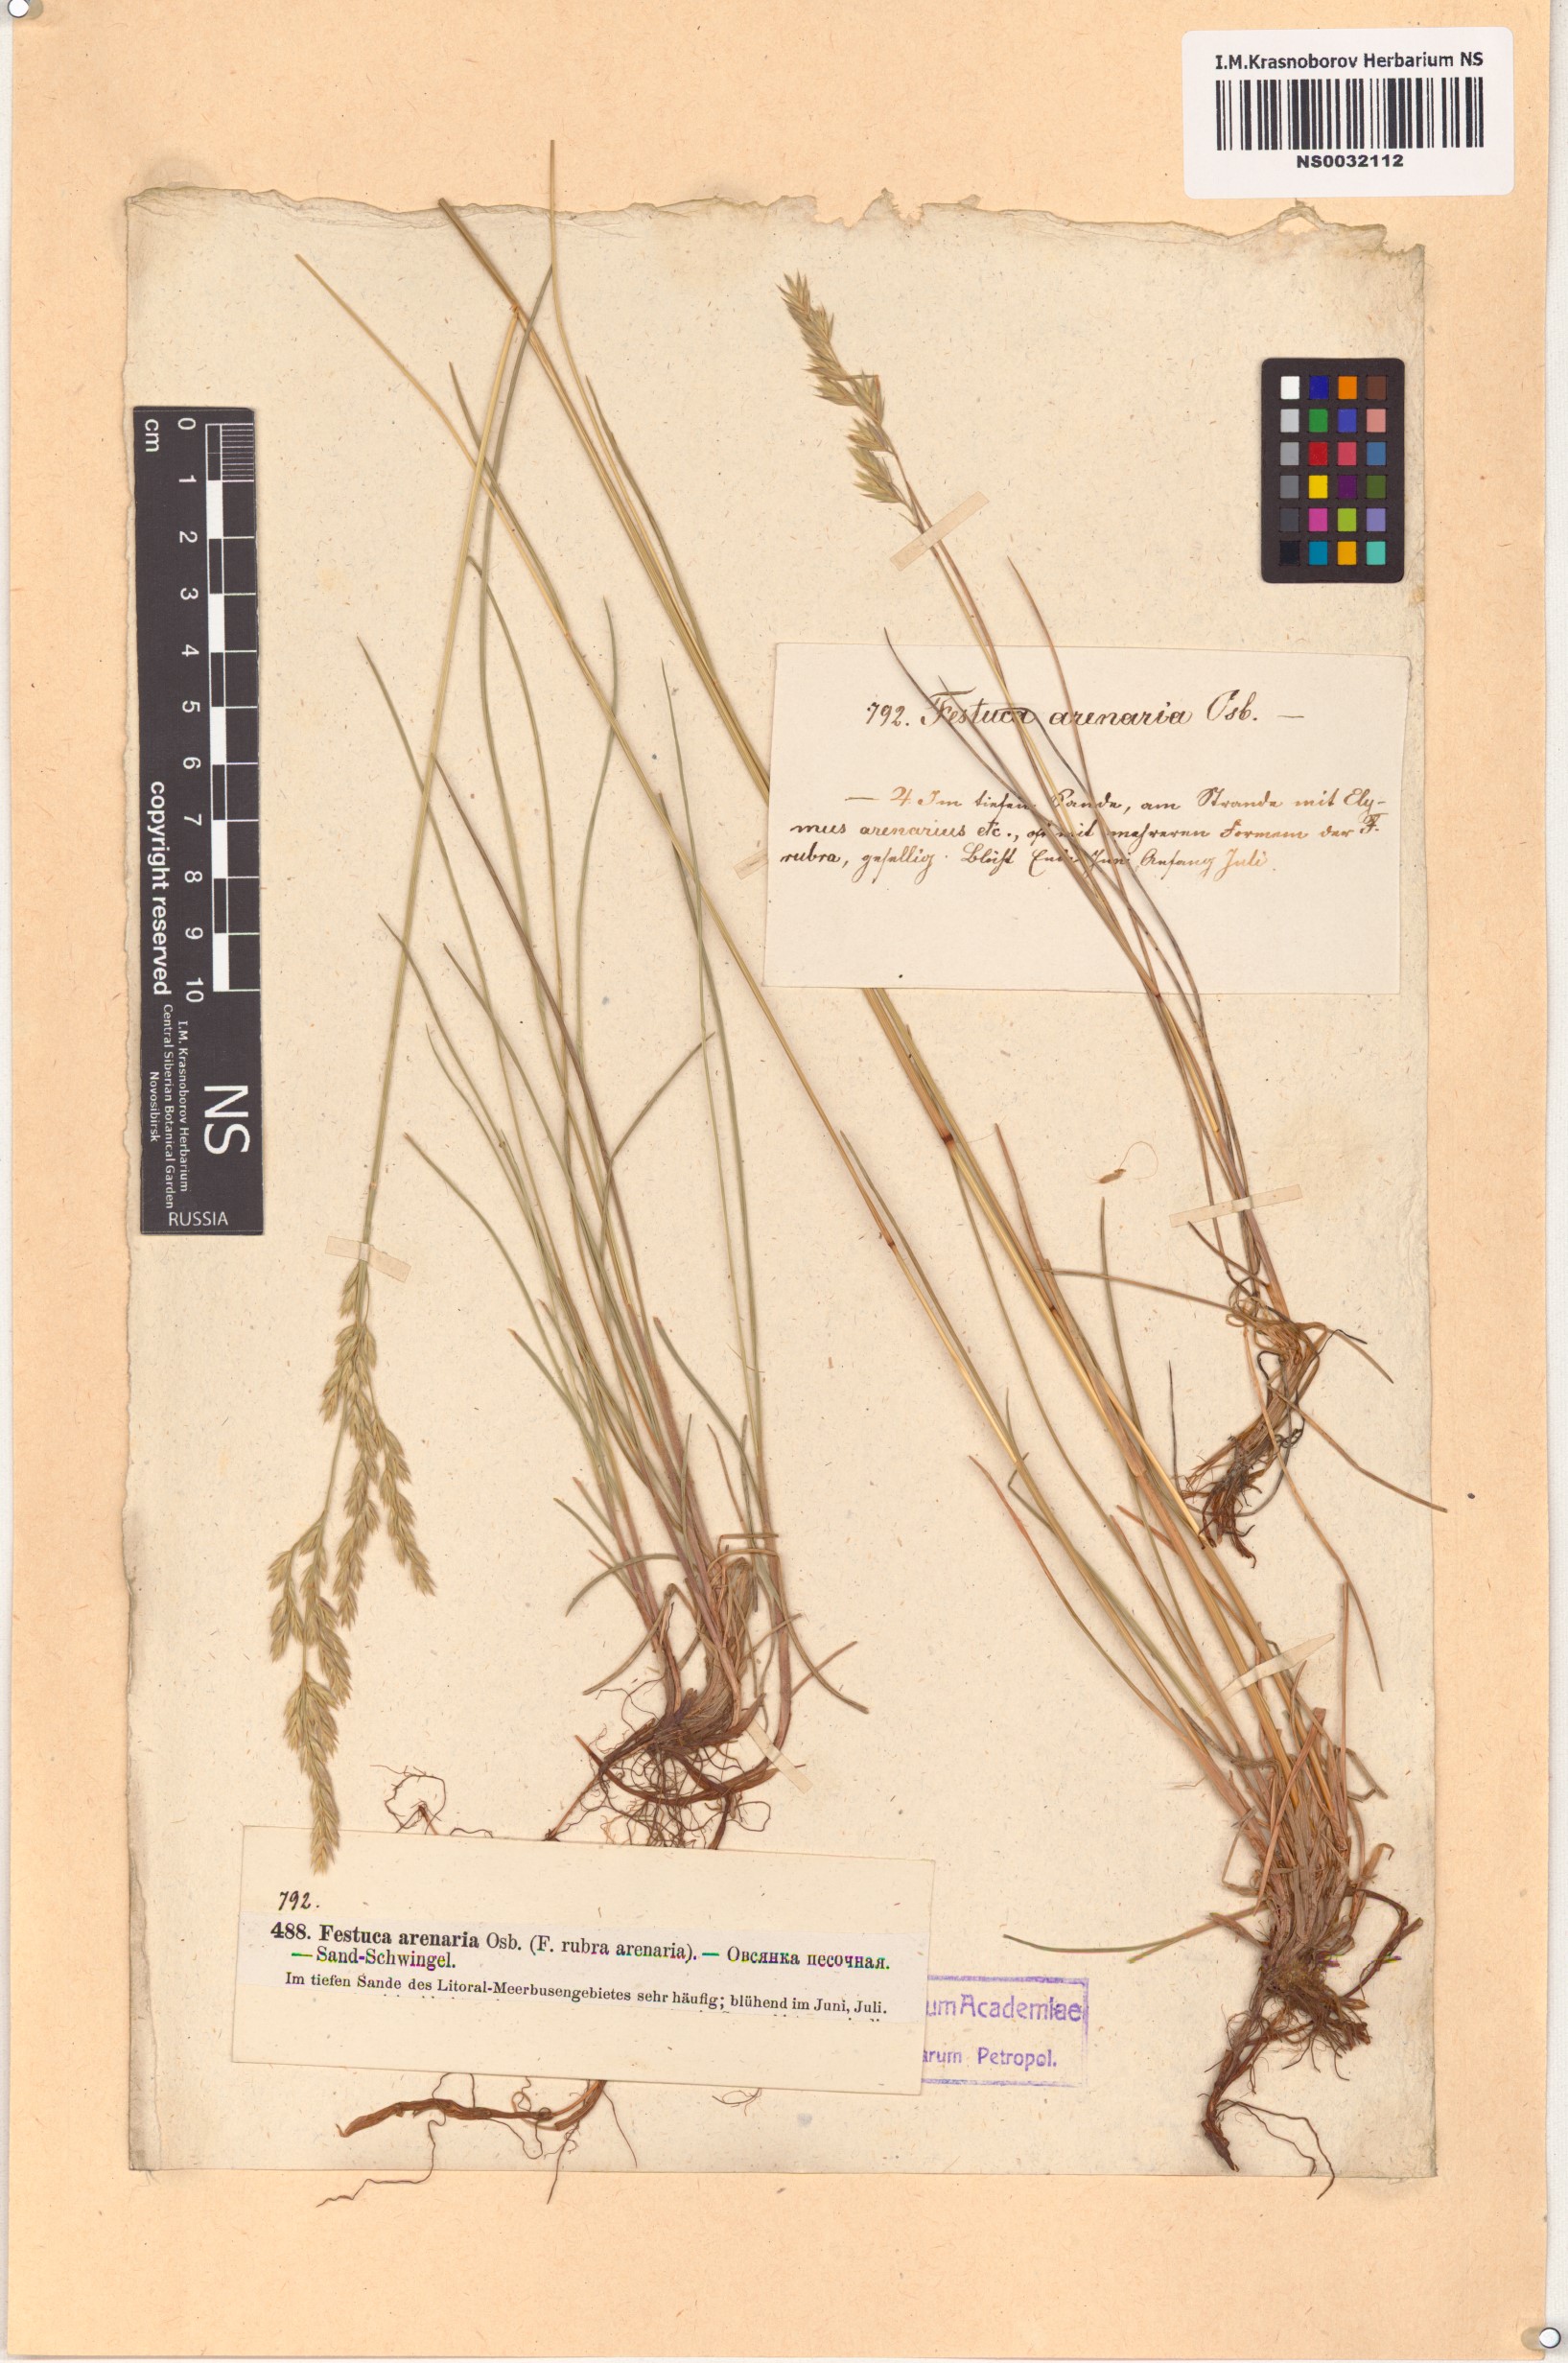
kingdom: Plantae
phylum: Tracheophyta
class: Liliopsida
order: Poales
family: Poaceae
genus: Festuca
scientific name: Festuca rubra
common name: Red fescue
